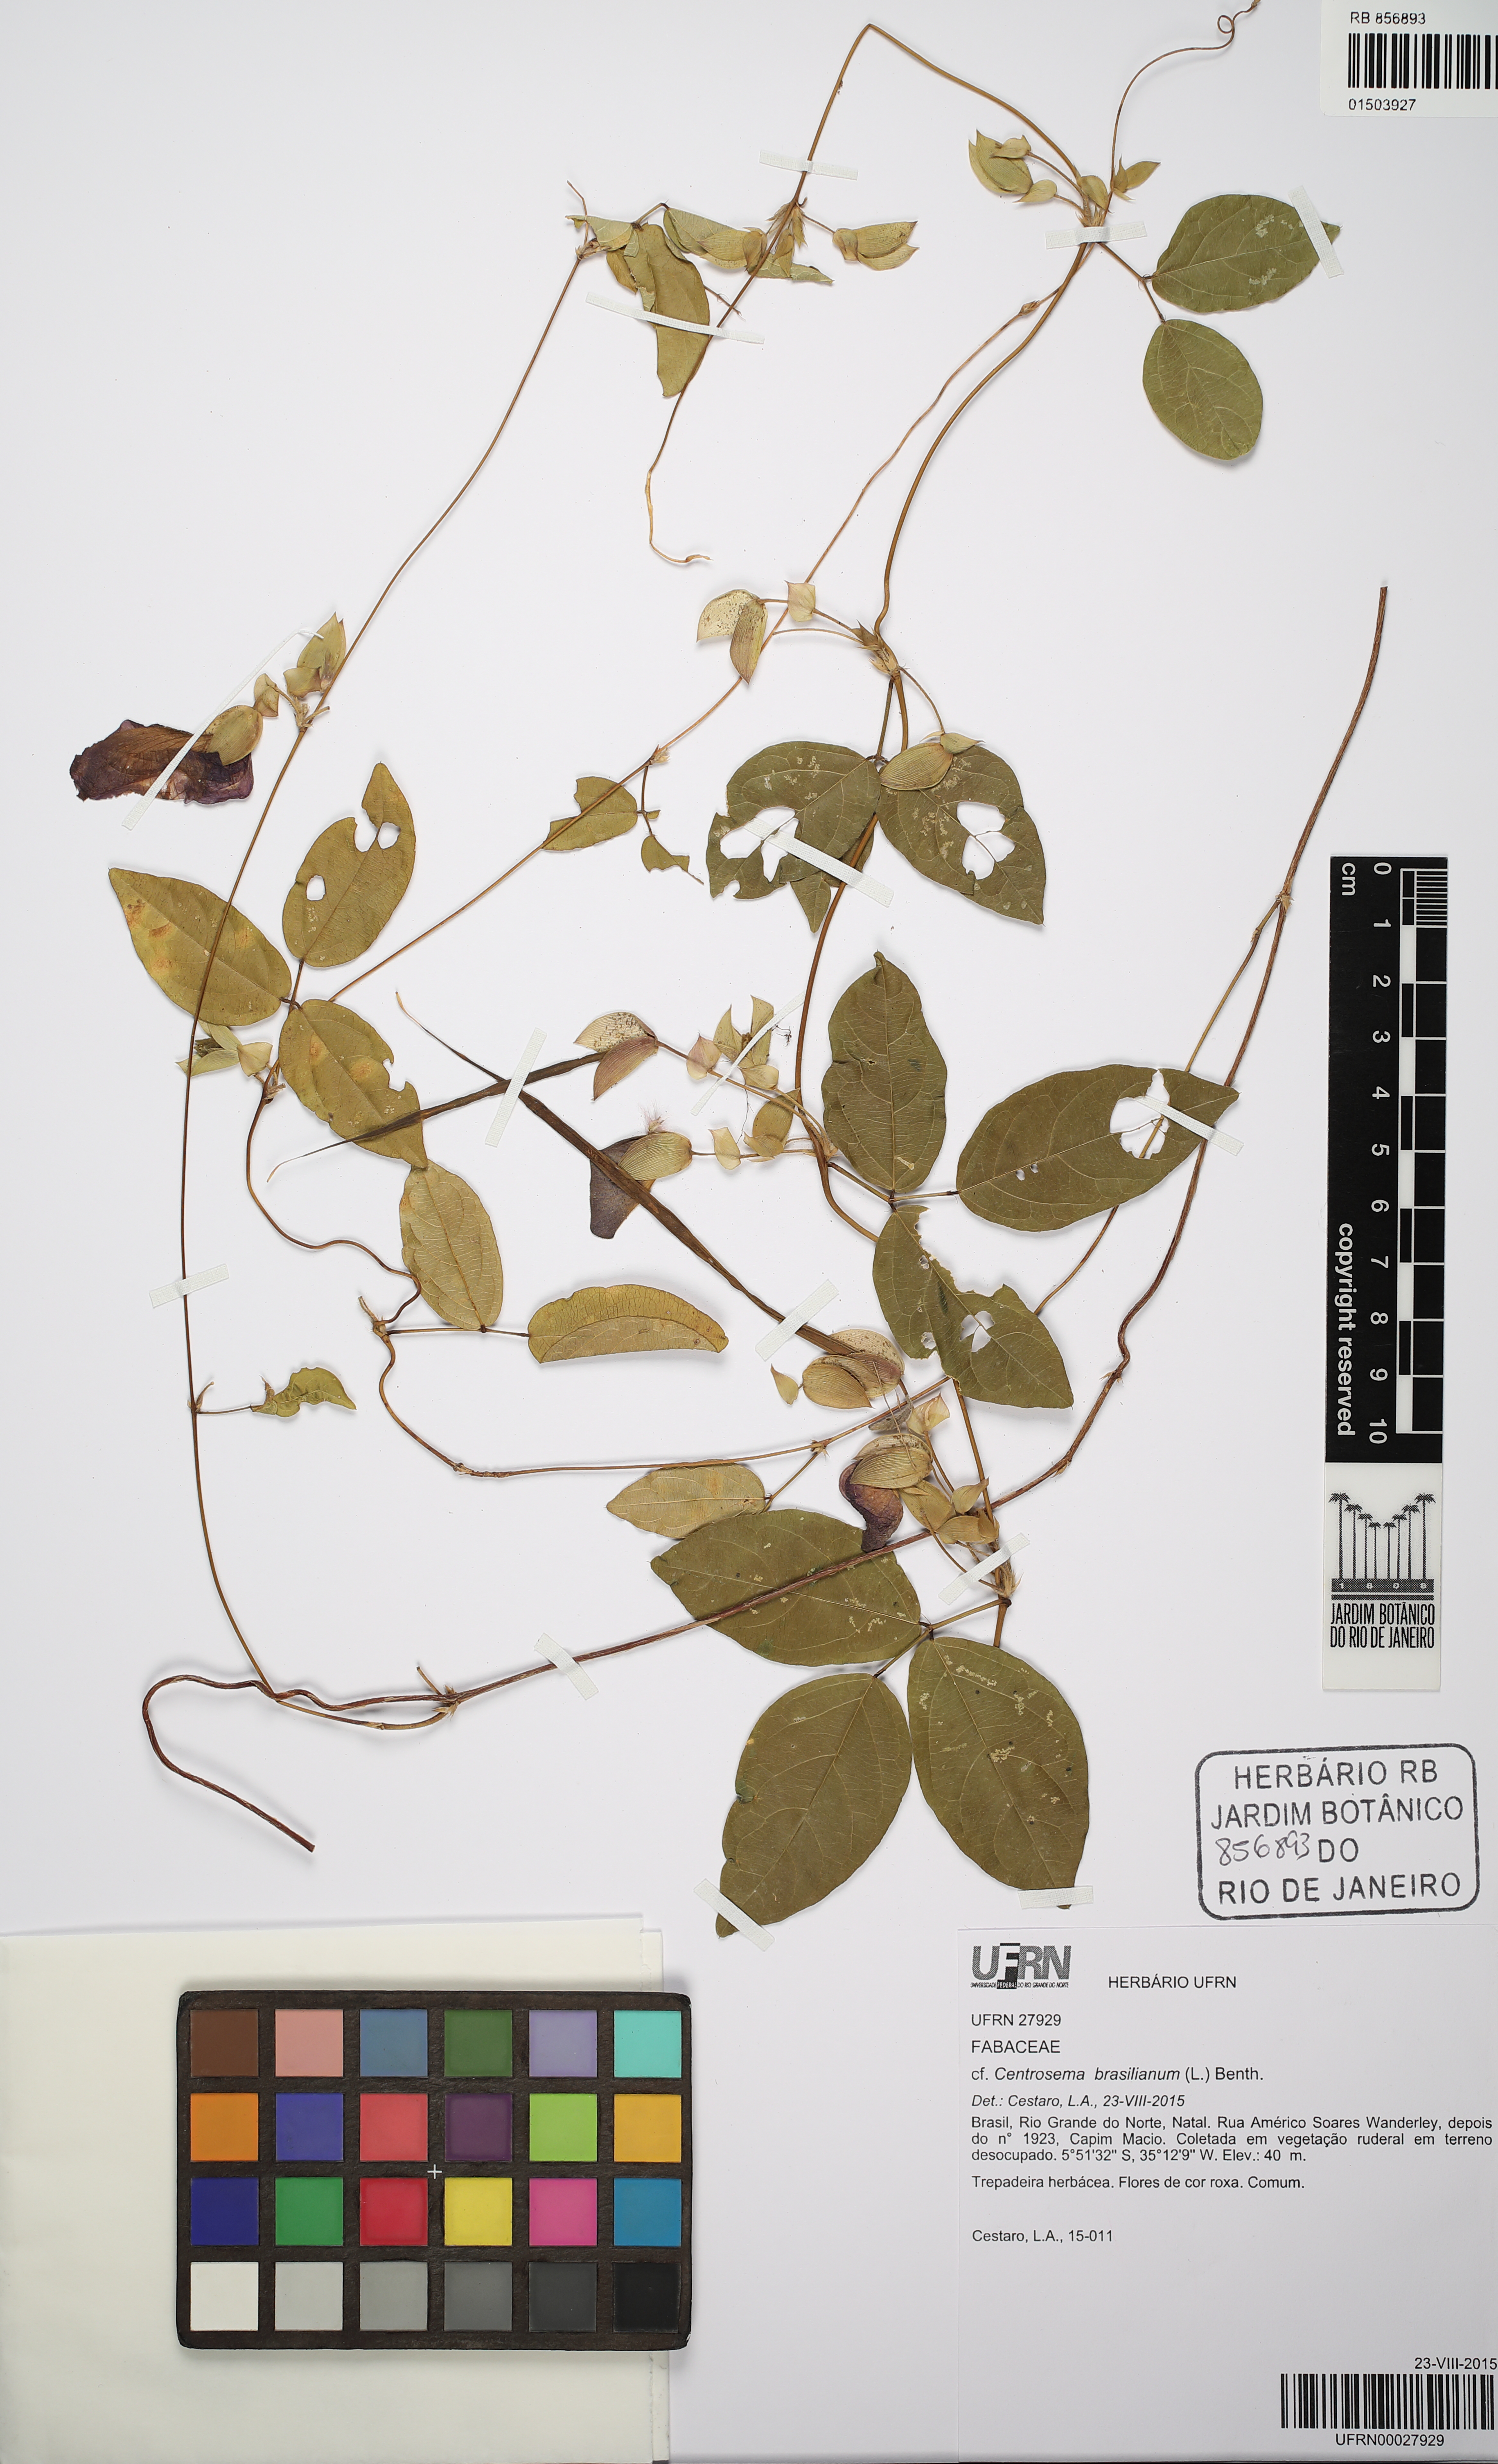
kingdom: Plantae
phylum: Tracheophyta
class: Magnoliopsida
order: Fabales
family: Fabaceae
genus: Centrosema
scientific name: Centrosema angustifolium
